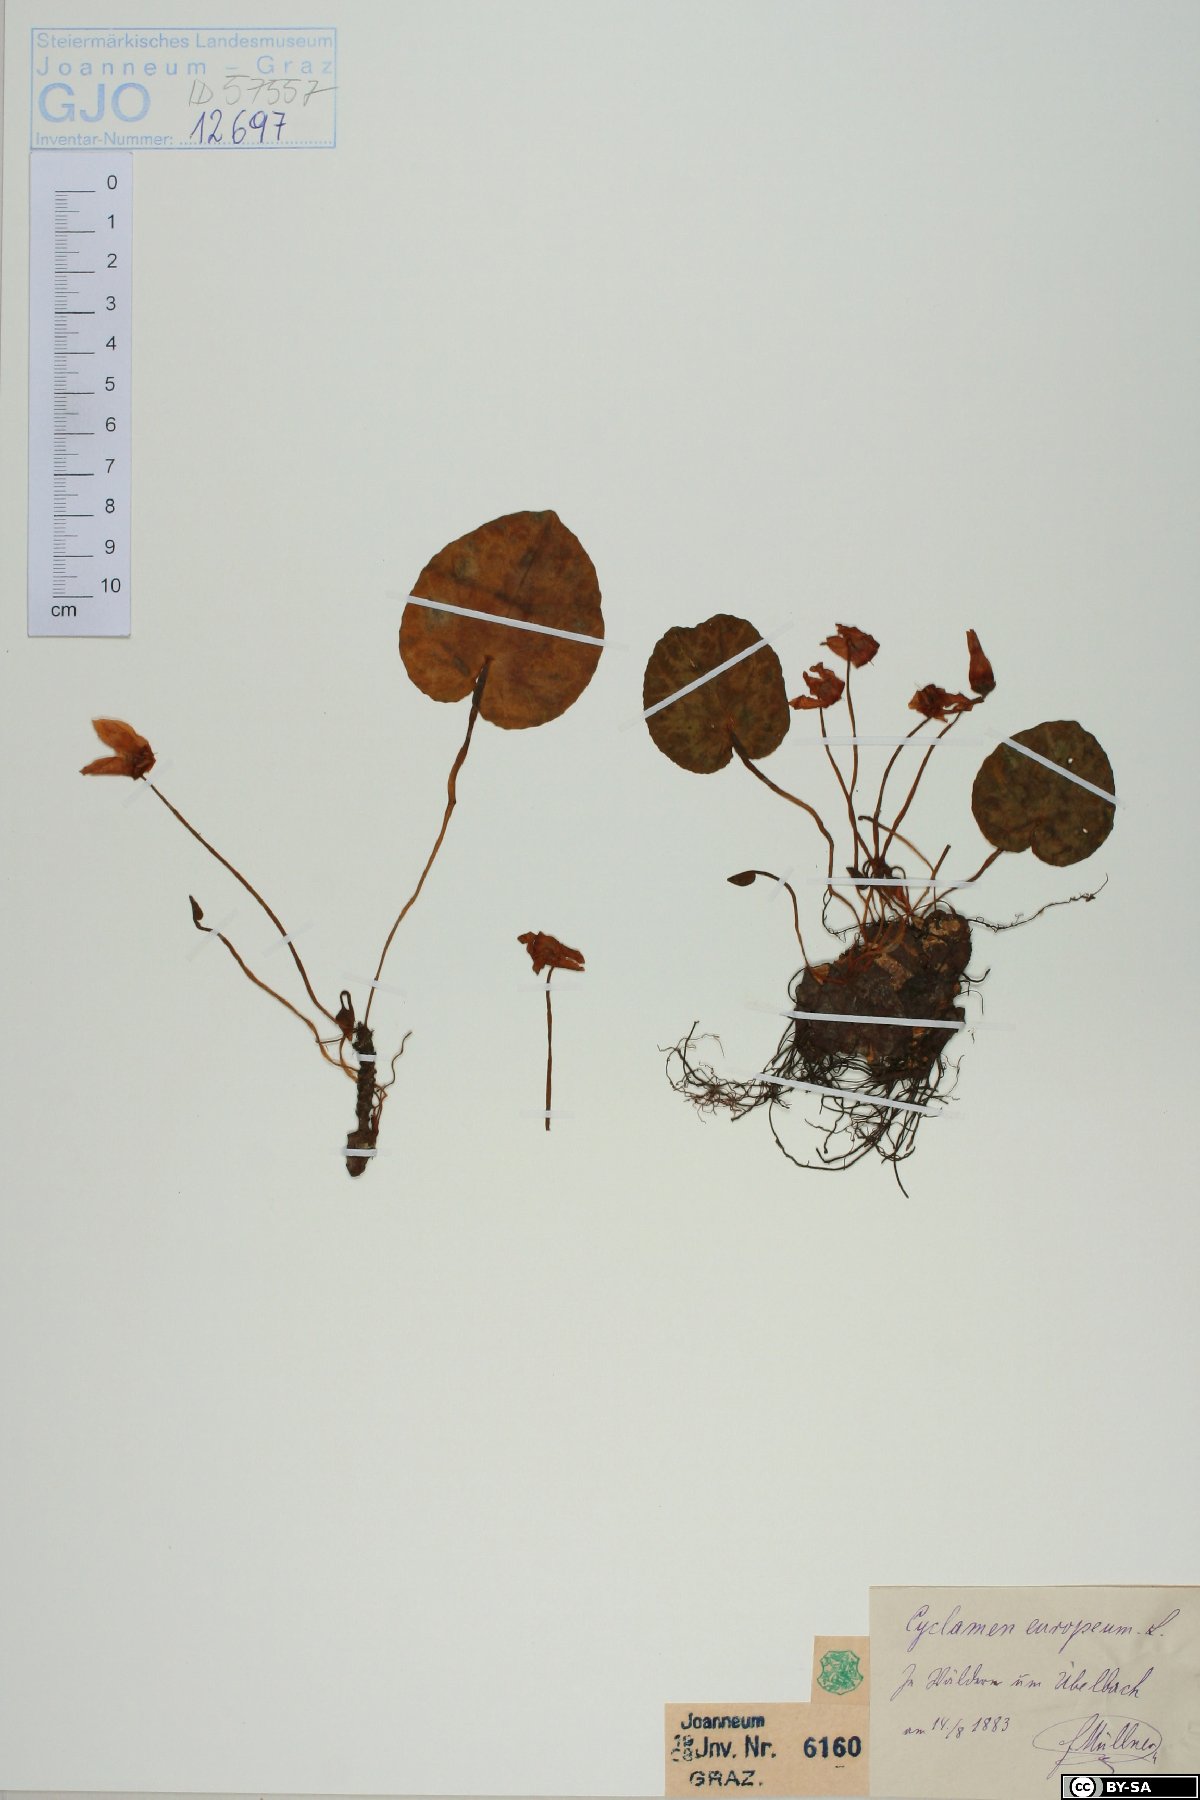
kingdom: Plantae
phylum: Tracheophyta
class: Magnoliopsida
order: Ericales
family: Primulaceae
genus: Cyclamen
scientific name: Cyclamen purpurascens
